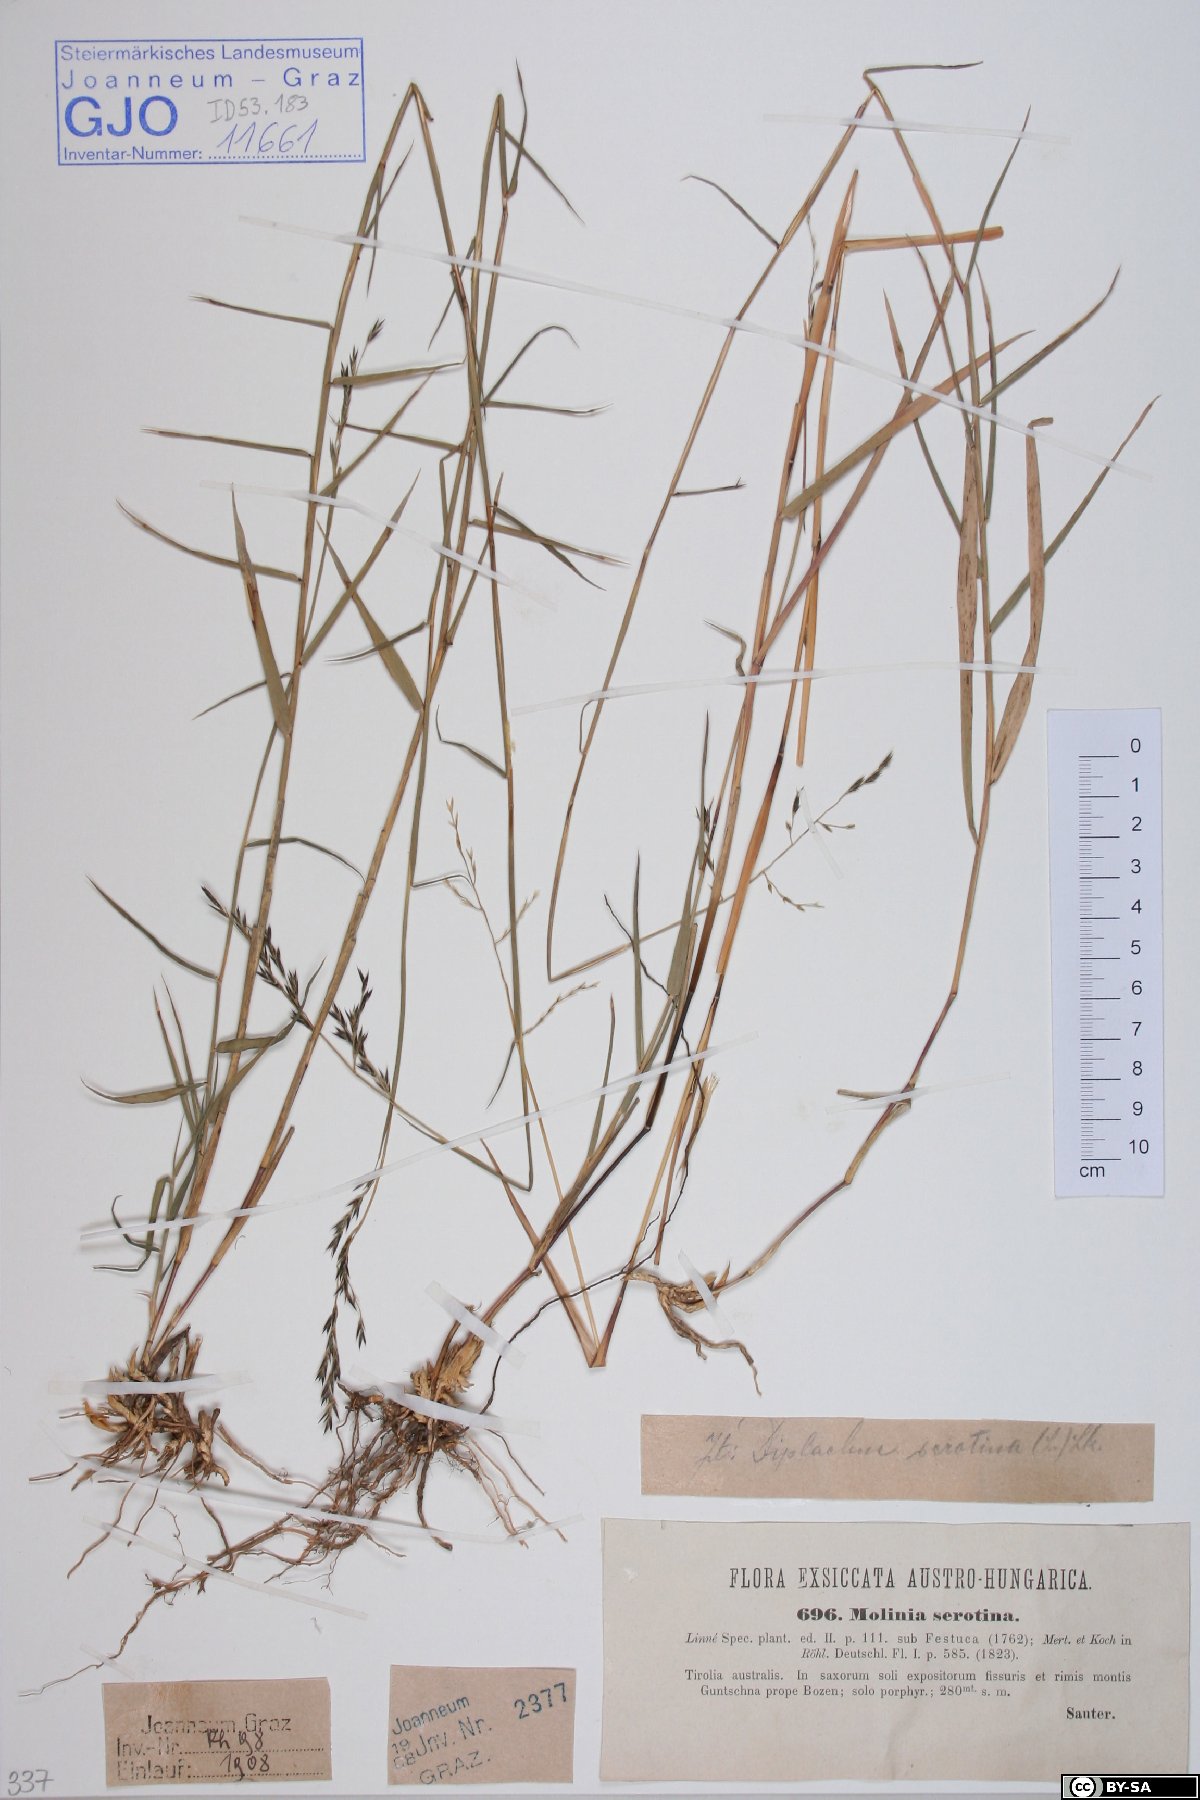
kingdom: Plantae
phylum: Tracheophyta
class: Liliopsida
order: Poales
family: Poaceae
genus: Cleistogenes
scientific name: Cleistogenes serotina
